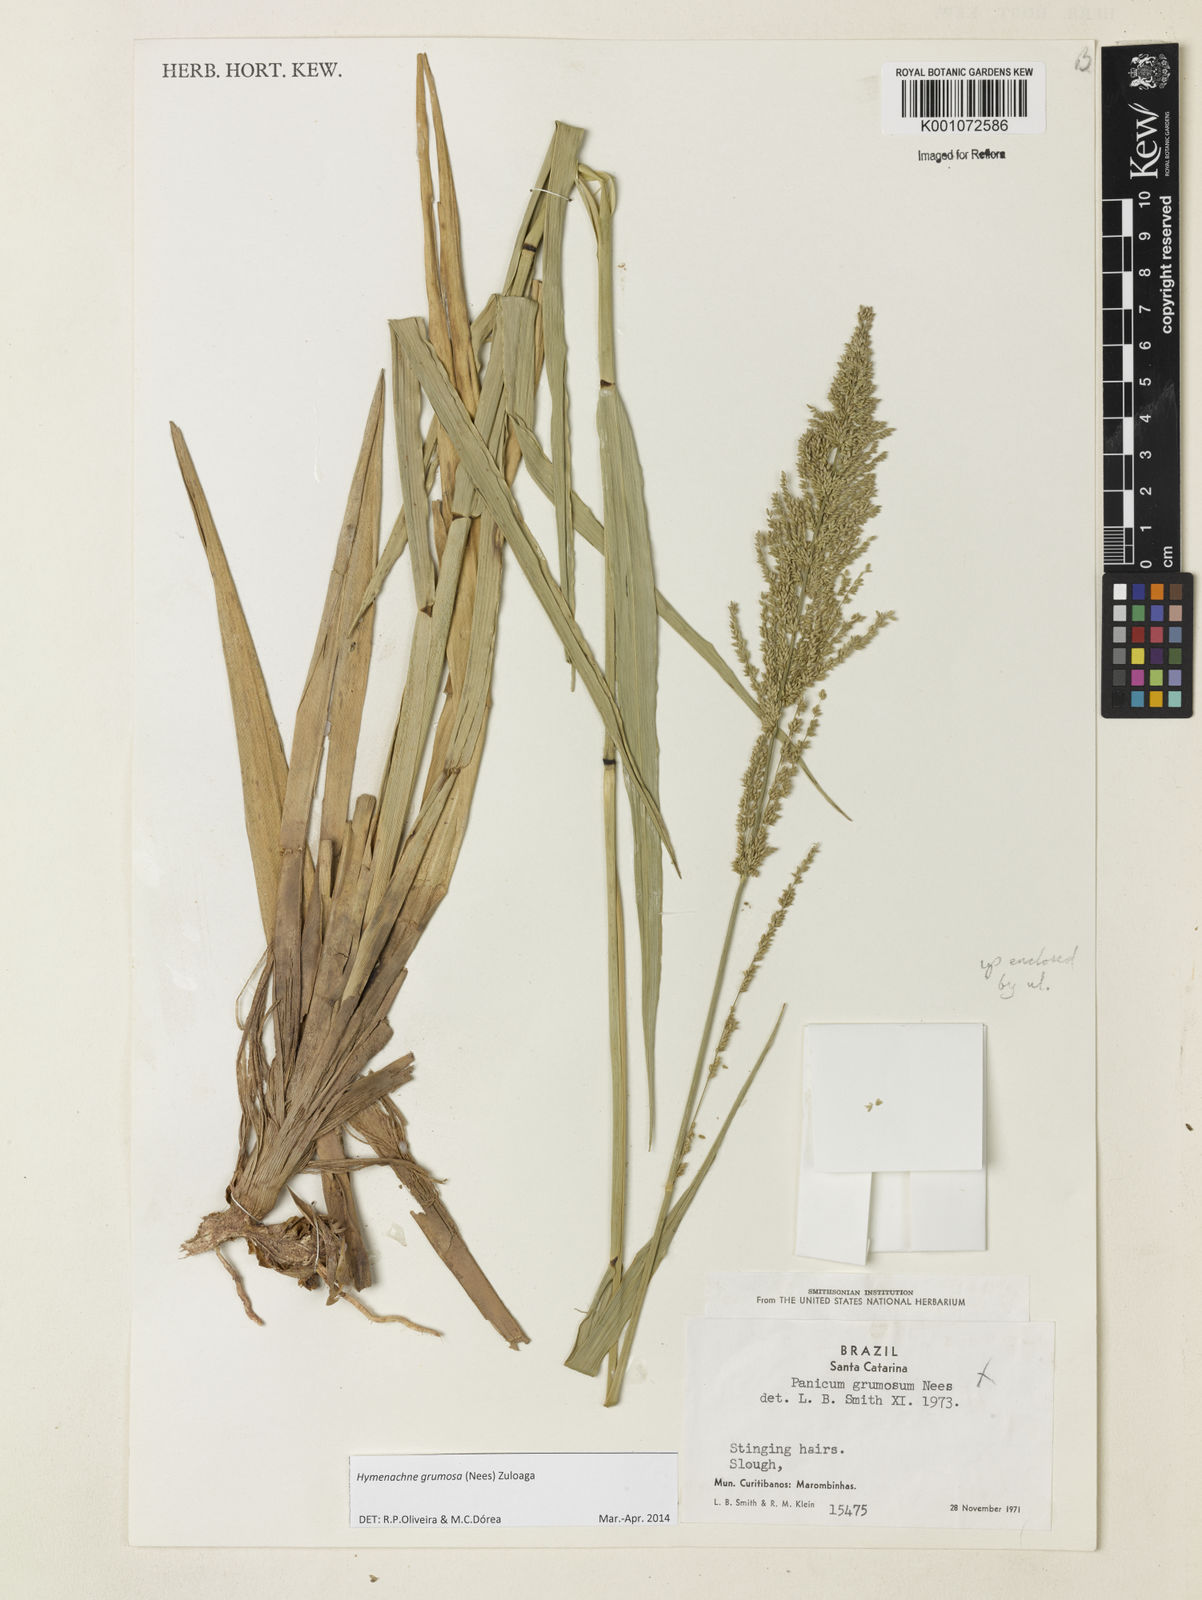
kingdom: Plantae
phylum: Tracheophyta
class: Liliopsida
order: Poales
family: Poaceae
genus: Hymenachne
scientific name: Hymenachne grumosa
